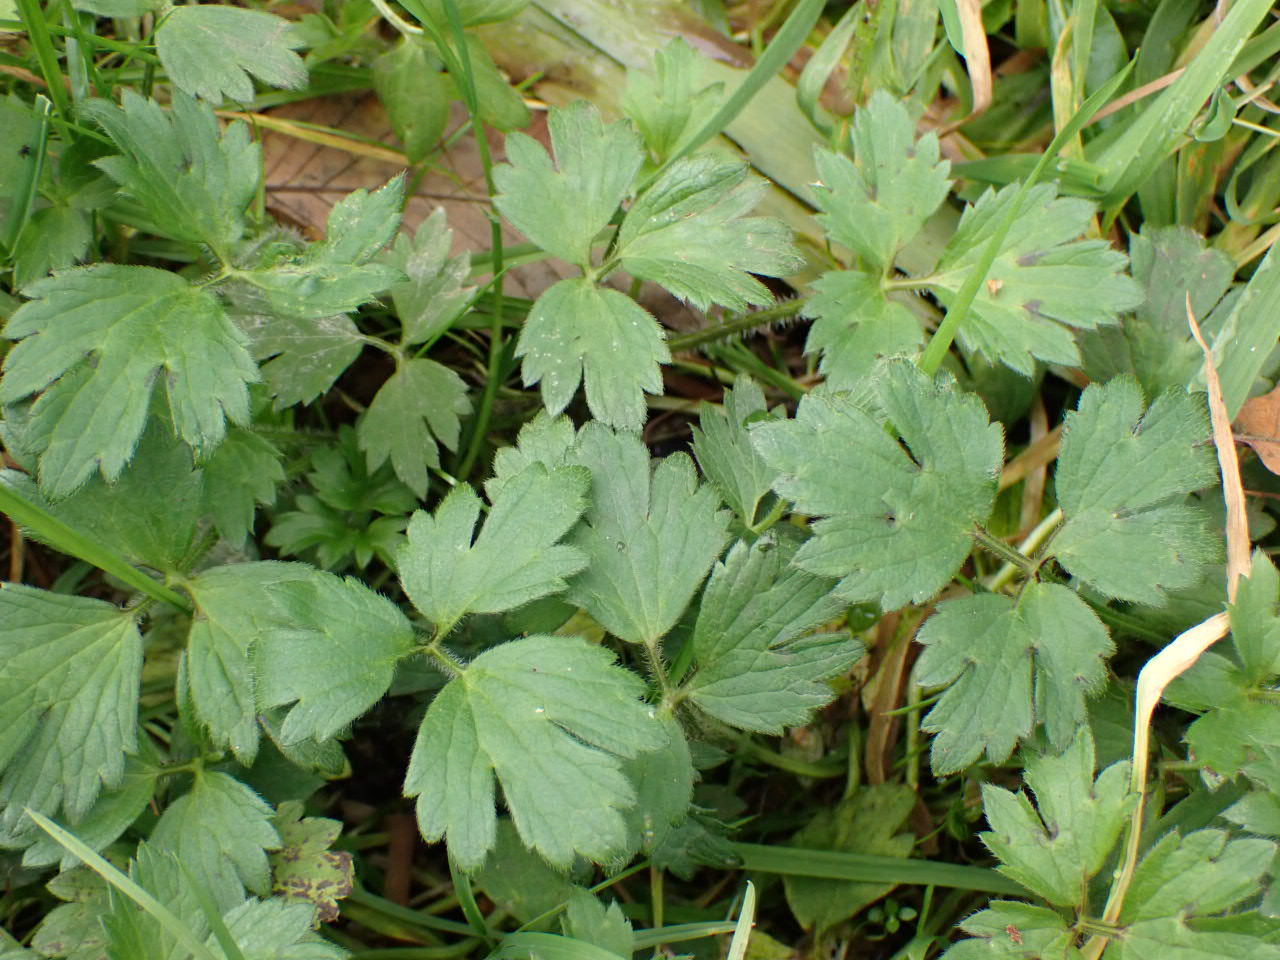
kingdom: Plantae
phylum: Tracheophyta
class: Magnoliopsida
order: Ranunculales
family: Ranunculaceae
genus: Ranunculus
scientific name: Ranunculus repens
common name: Lav ranunkel
